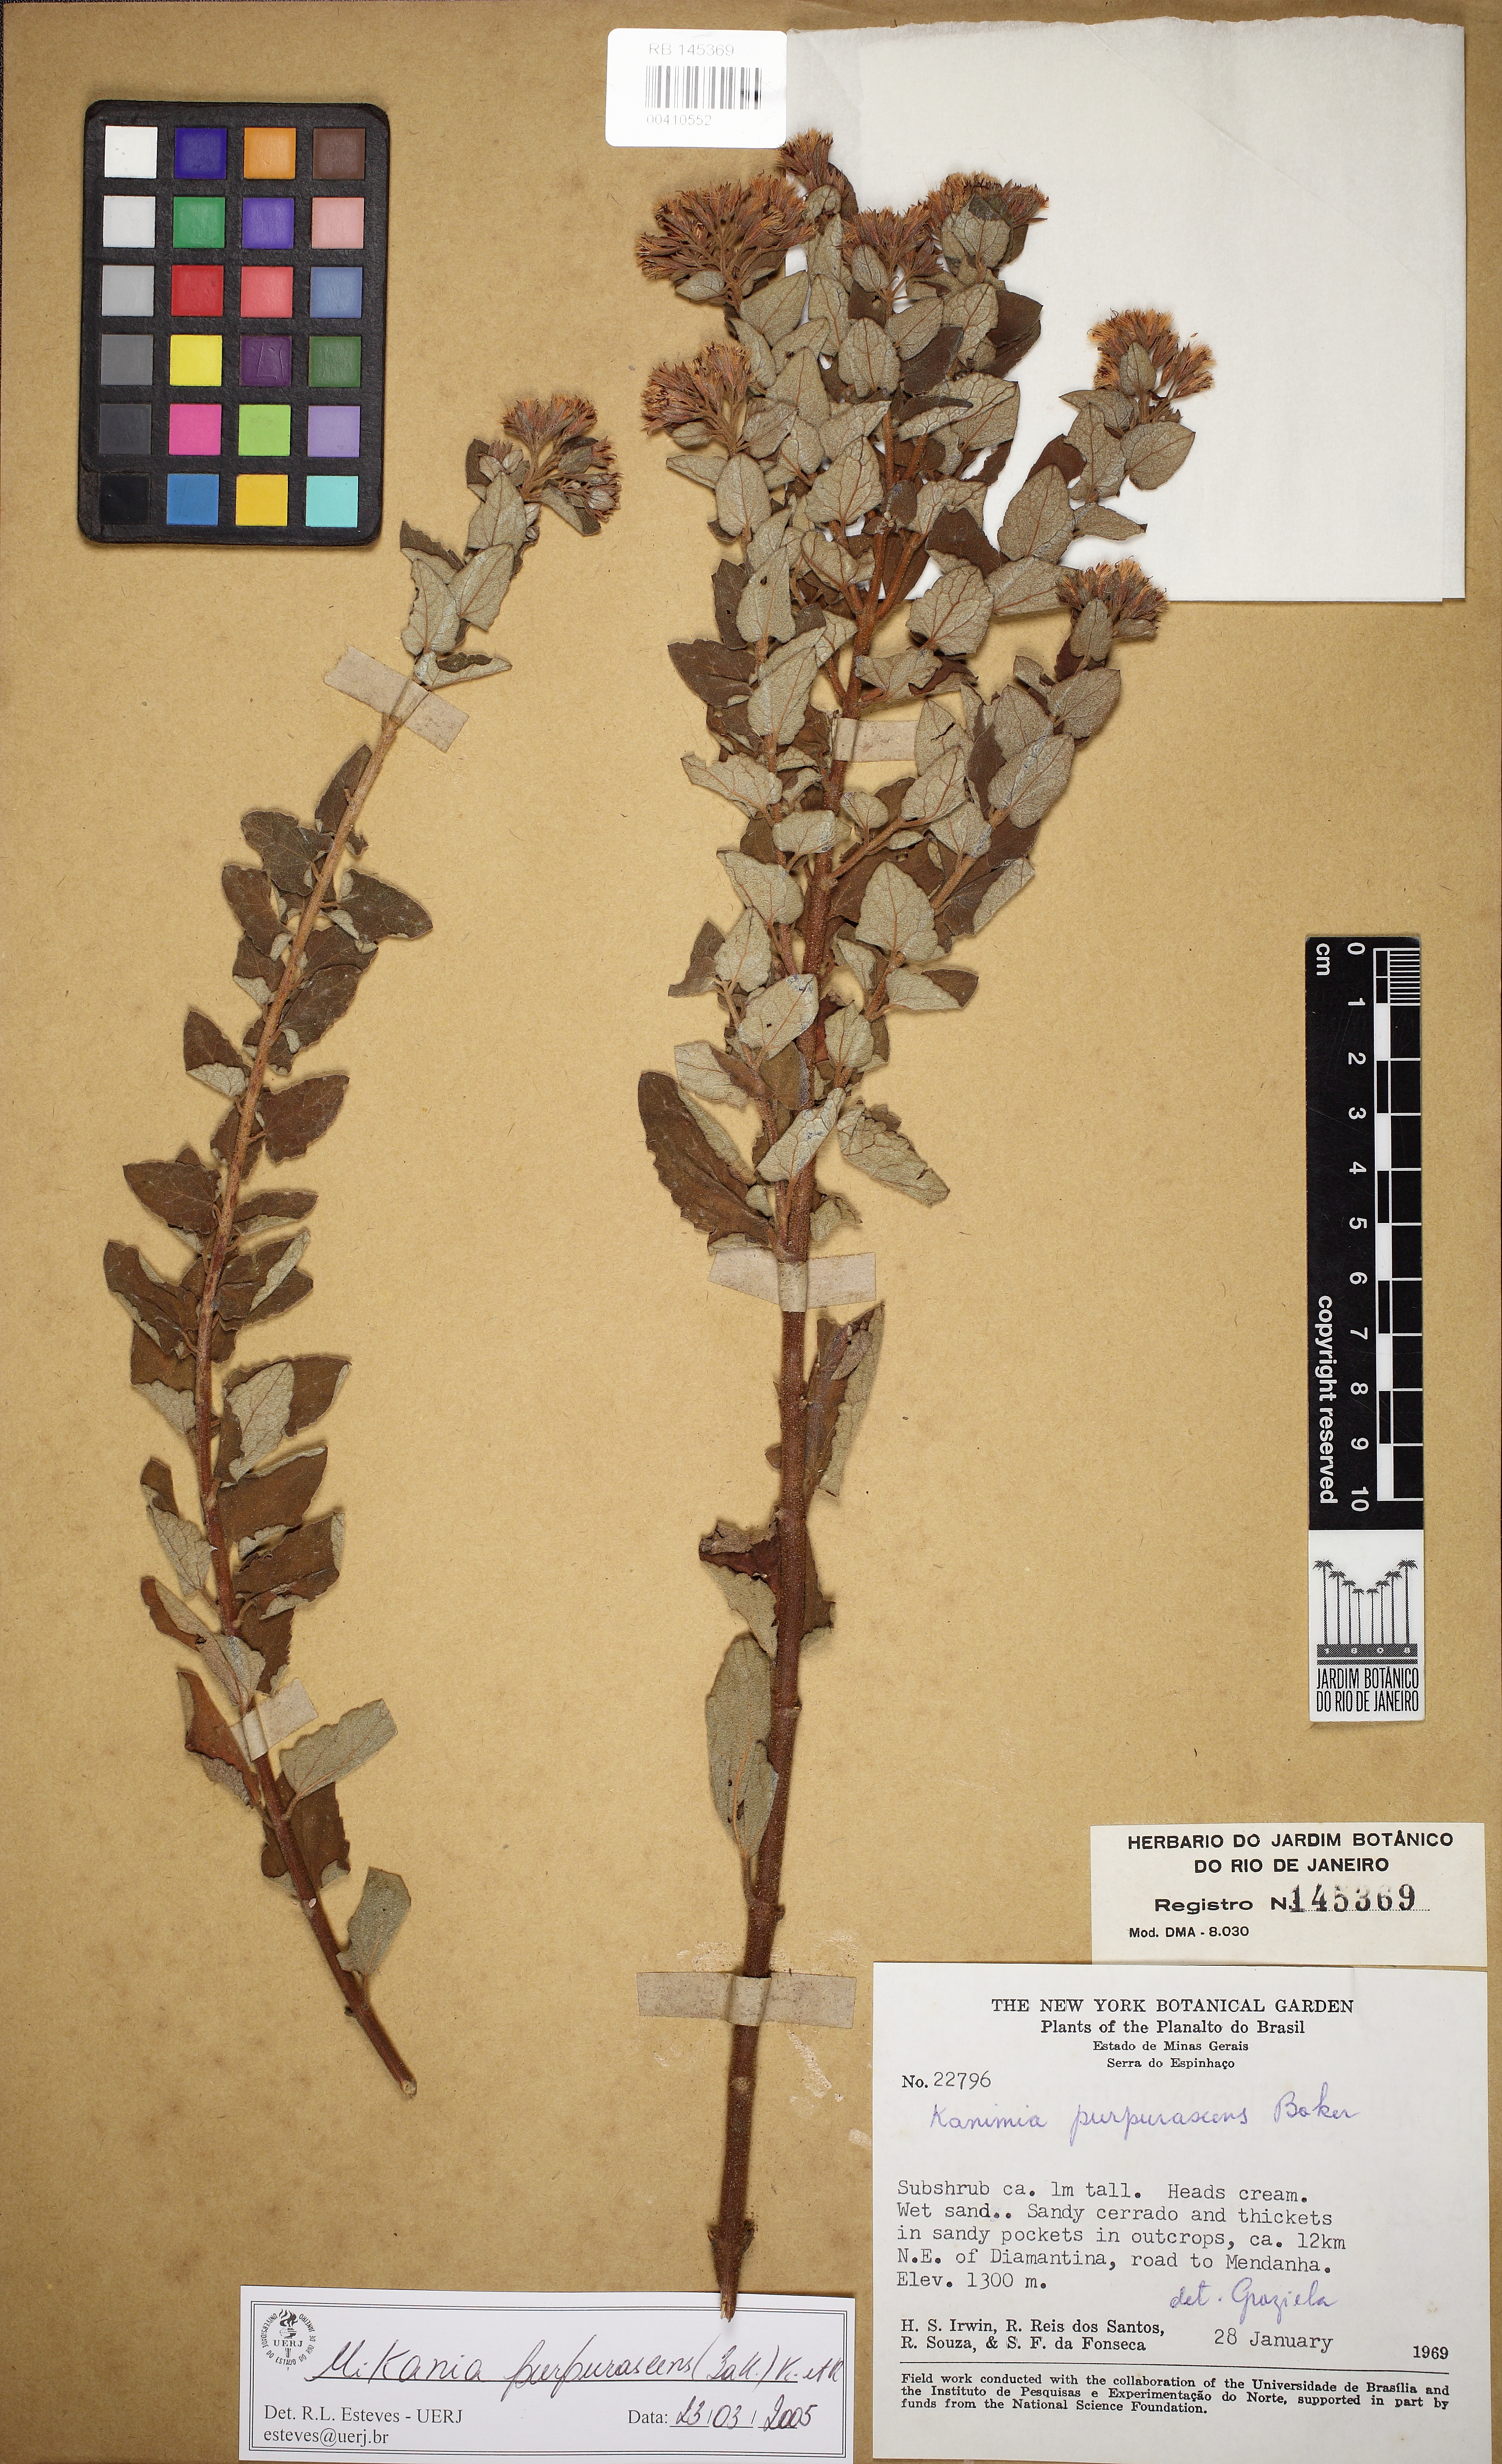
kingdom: Plantae
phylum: Tracheophyta
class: Magnoliopsida
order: Asterales
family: Asteraceae
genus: Mikania
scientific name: Mikania purpurascens
